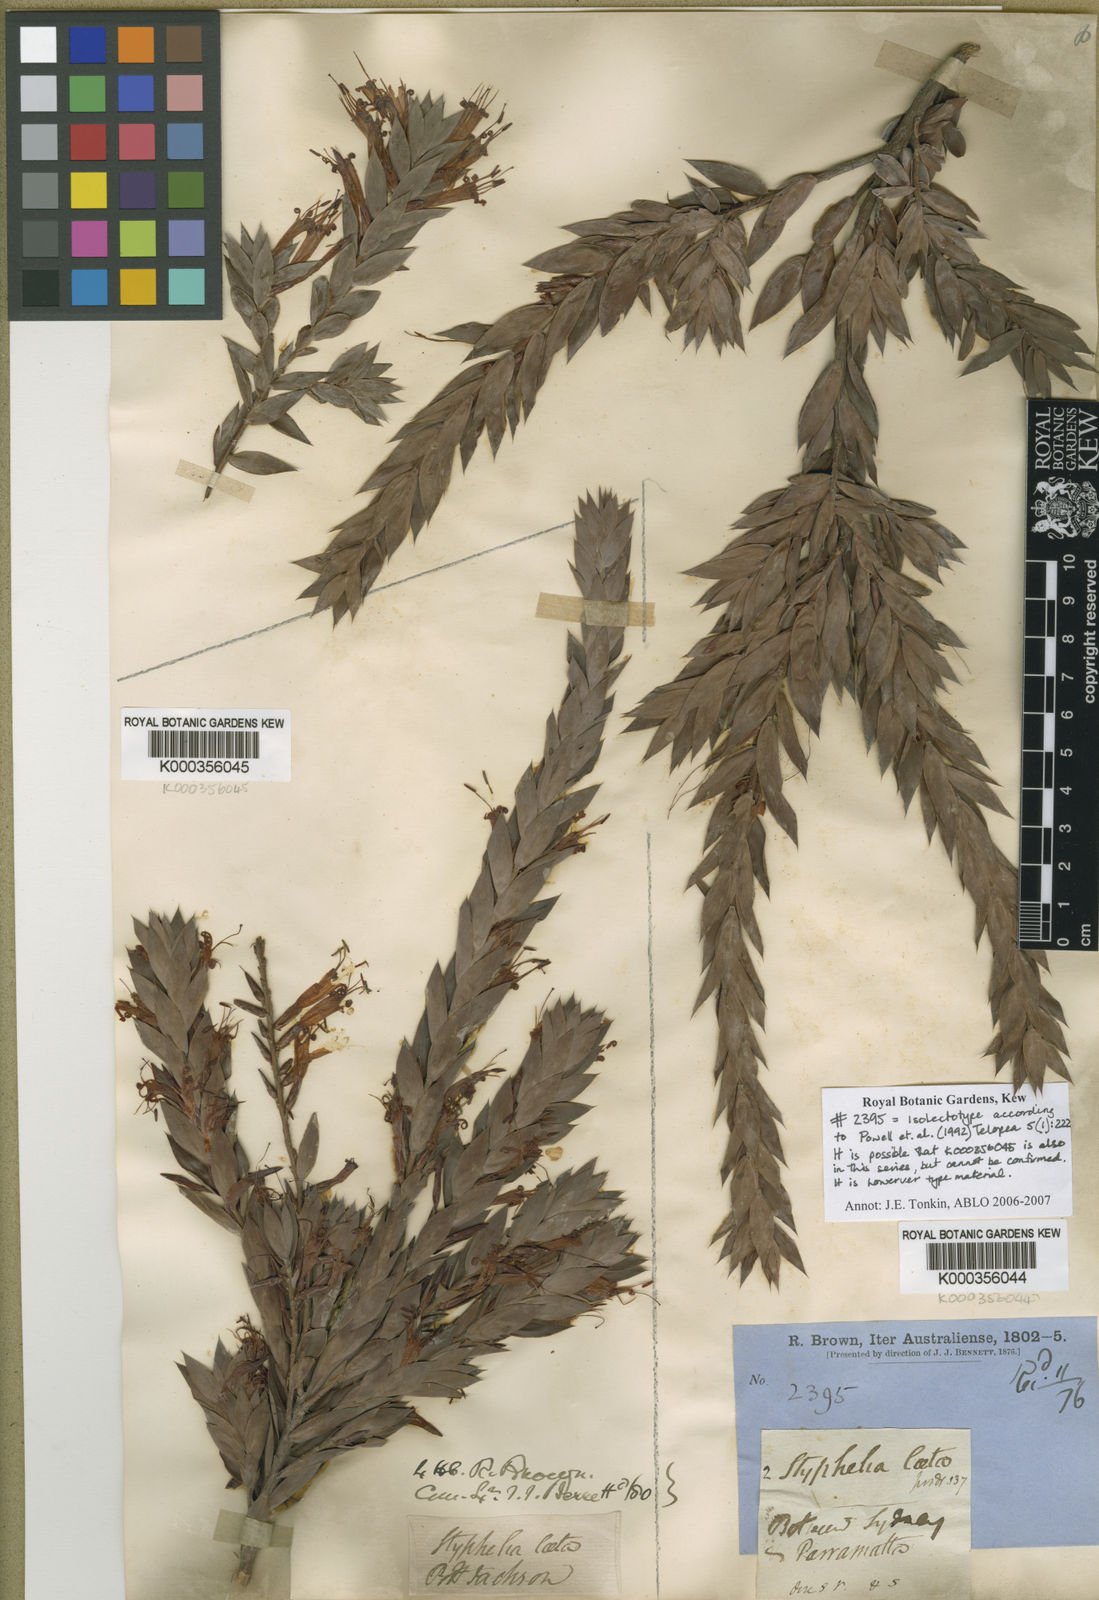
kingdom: Plantae
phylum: Tracheophyta
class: Magnoliopsida
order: Ericales
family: Ericaceae
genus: Styphelia
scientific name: Styphelia laeta
